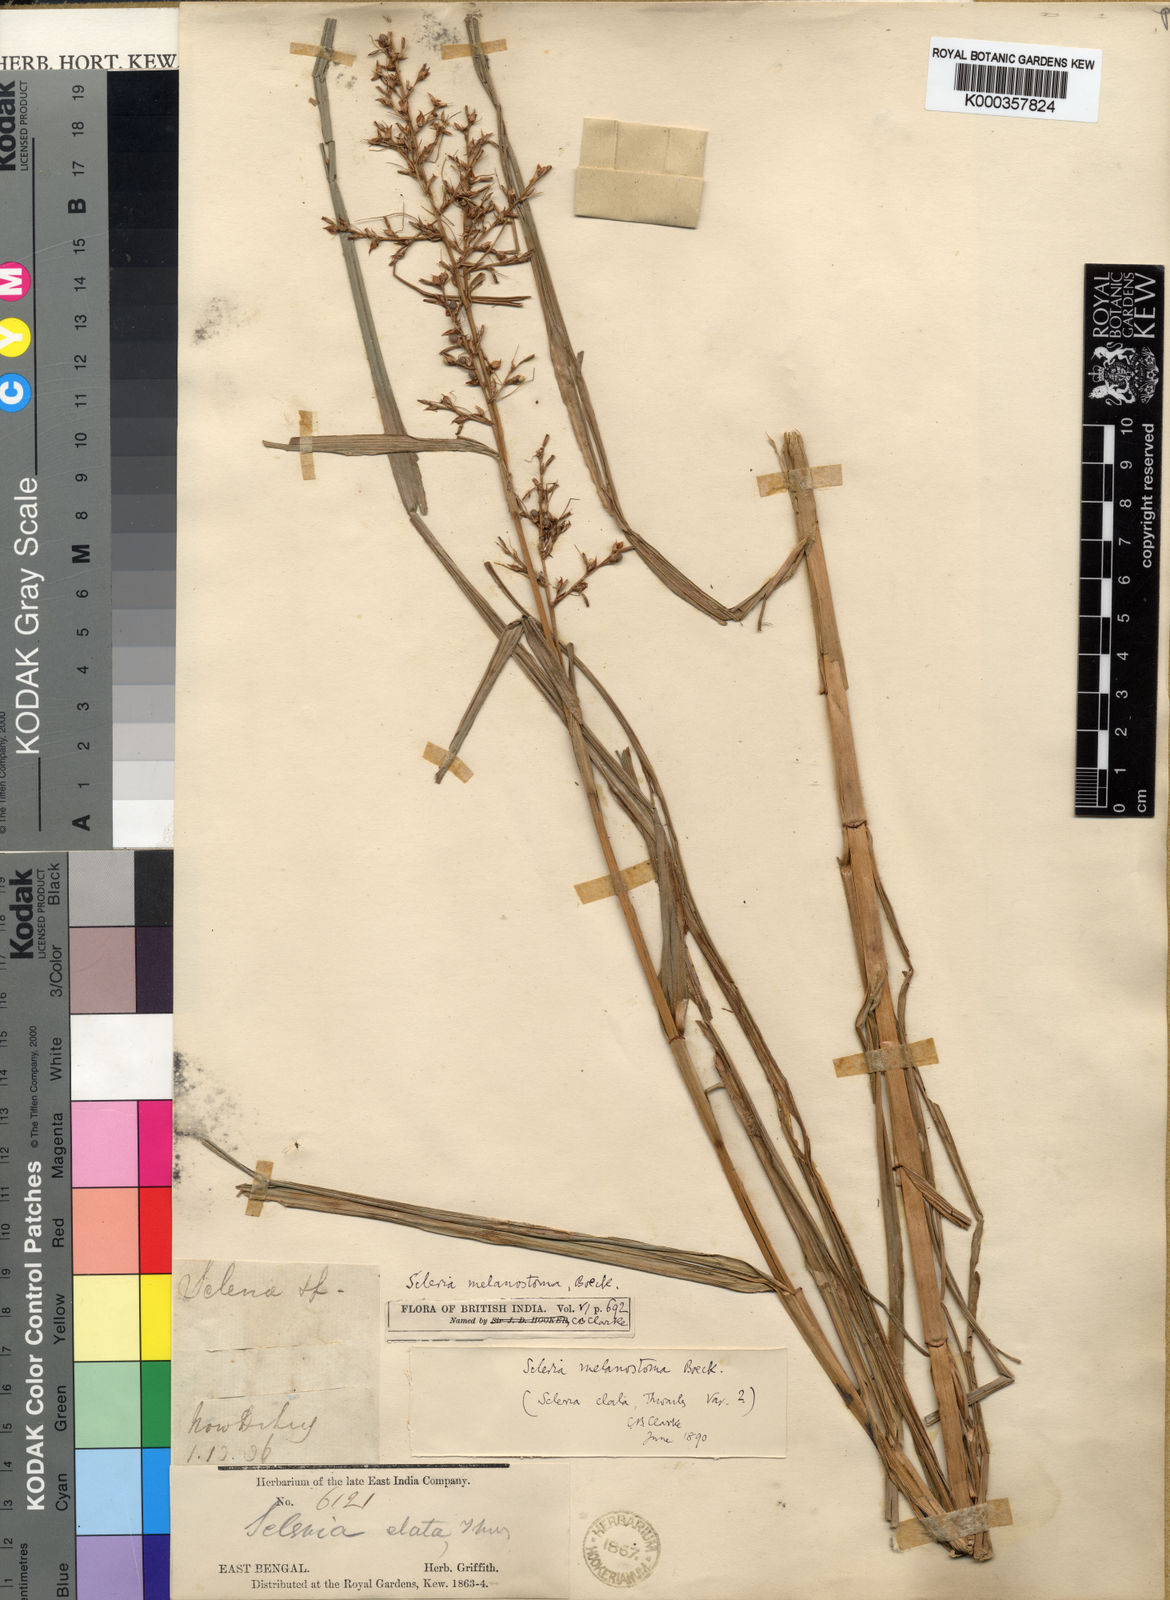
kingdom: Plantae
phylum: Tracheophyta
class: Liliopsida
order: Poales
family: Cyperaceae
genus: Scleria
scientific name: Scleria terrestris
